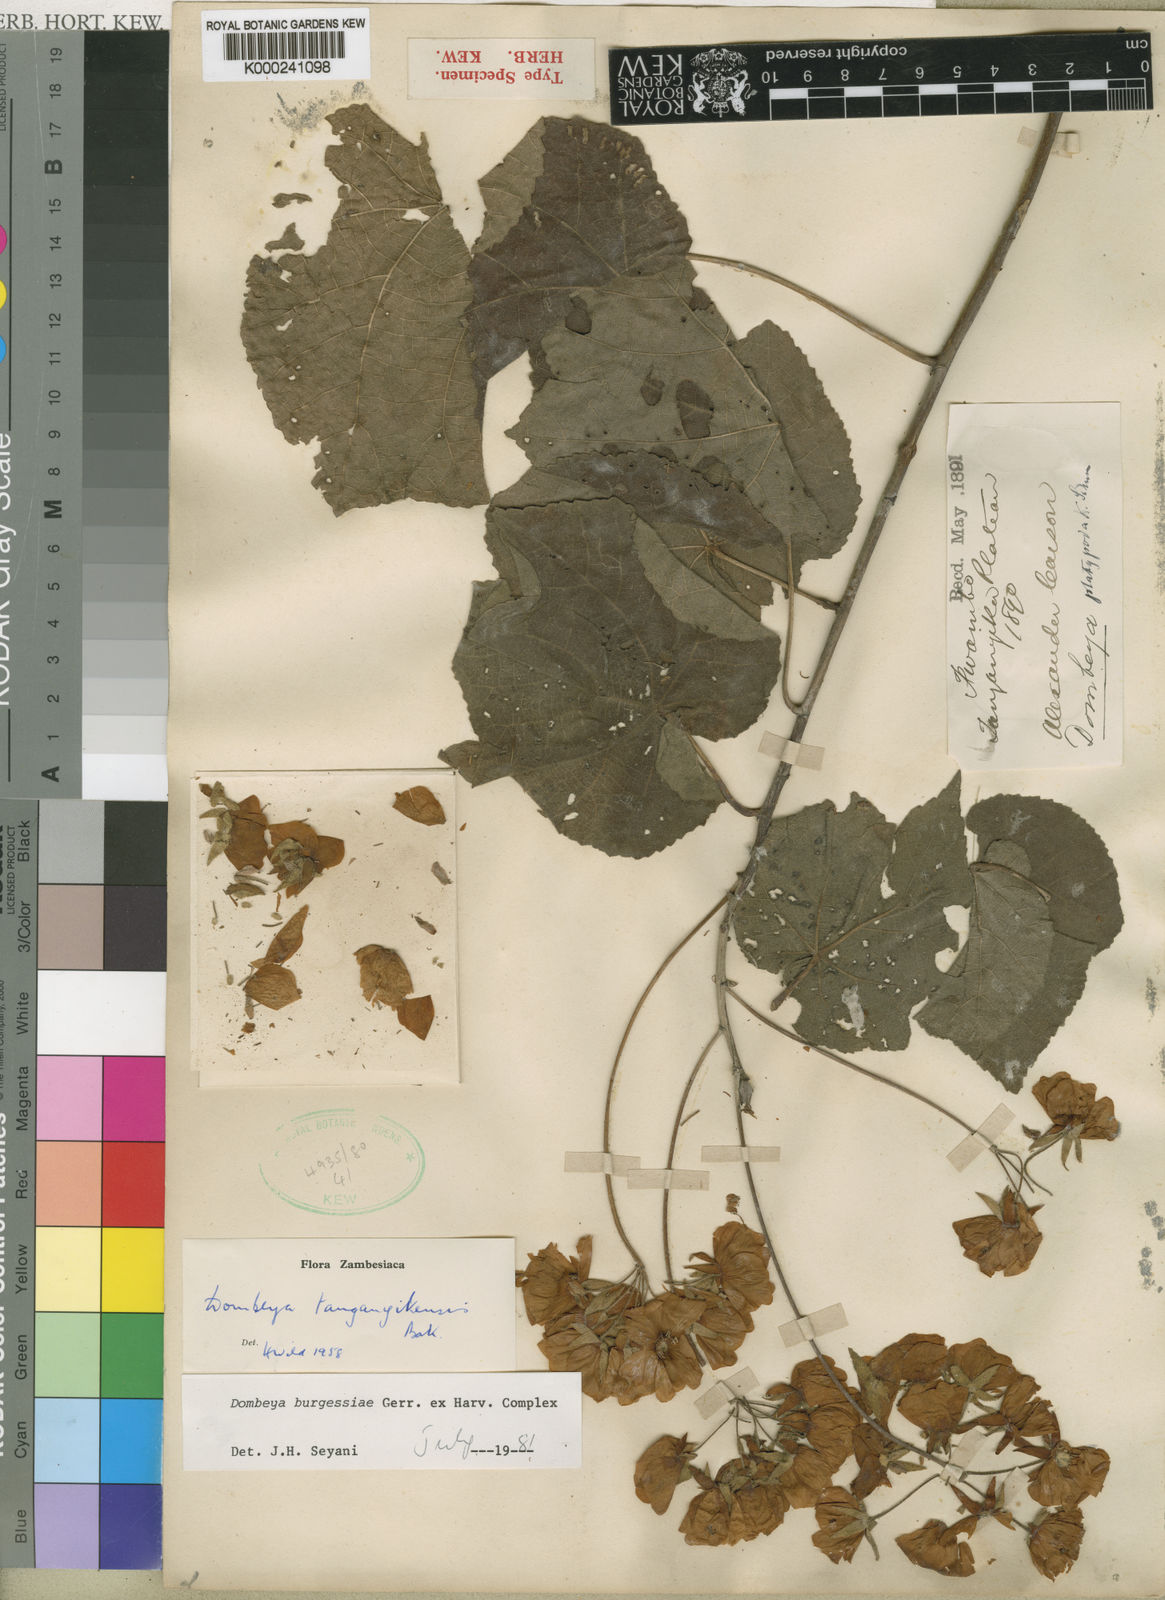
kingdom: Plantae
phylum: Tracheophyta
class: Magnoliopsida
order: Malvales
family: Malvaceae
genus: Dombeya
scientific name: Dombeya burgessiae
